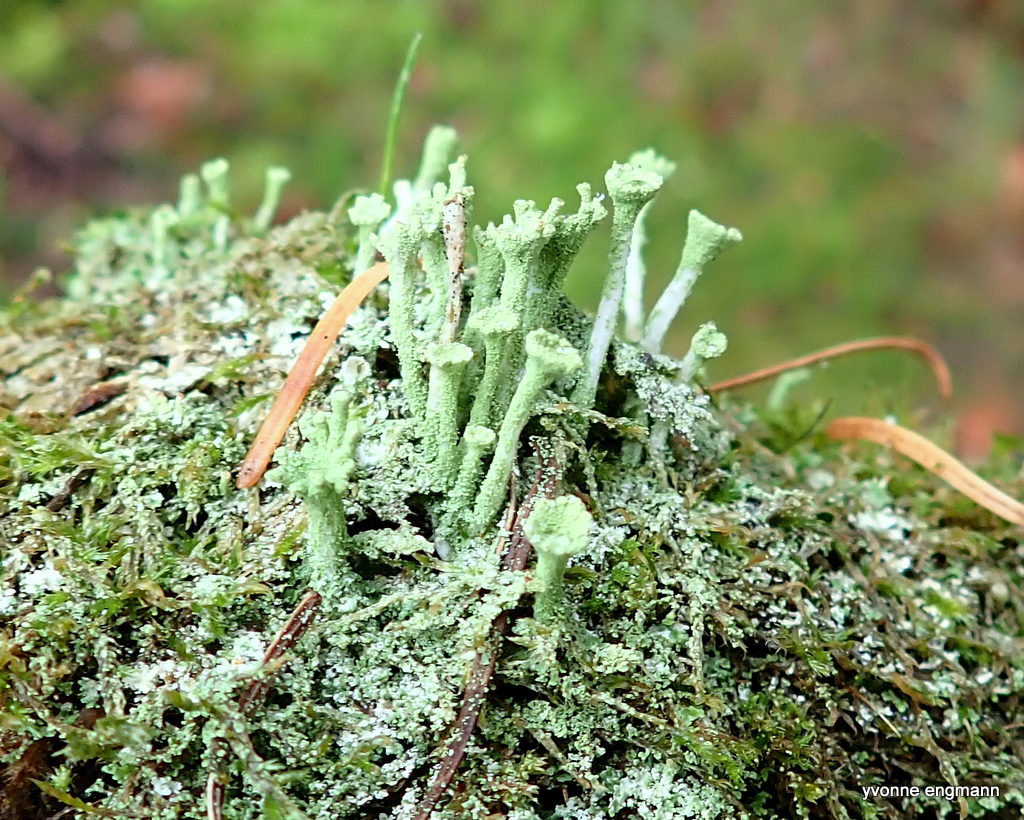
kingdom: Fungi
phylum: Ascomycota
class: Lecanoromycetes
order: Lecanorales
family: Cladoniaceae
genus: Cladonia
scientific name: Cladonia
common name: brungrøn bægerlav
